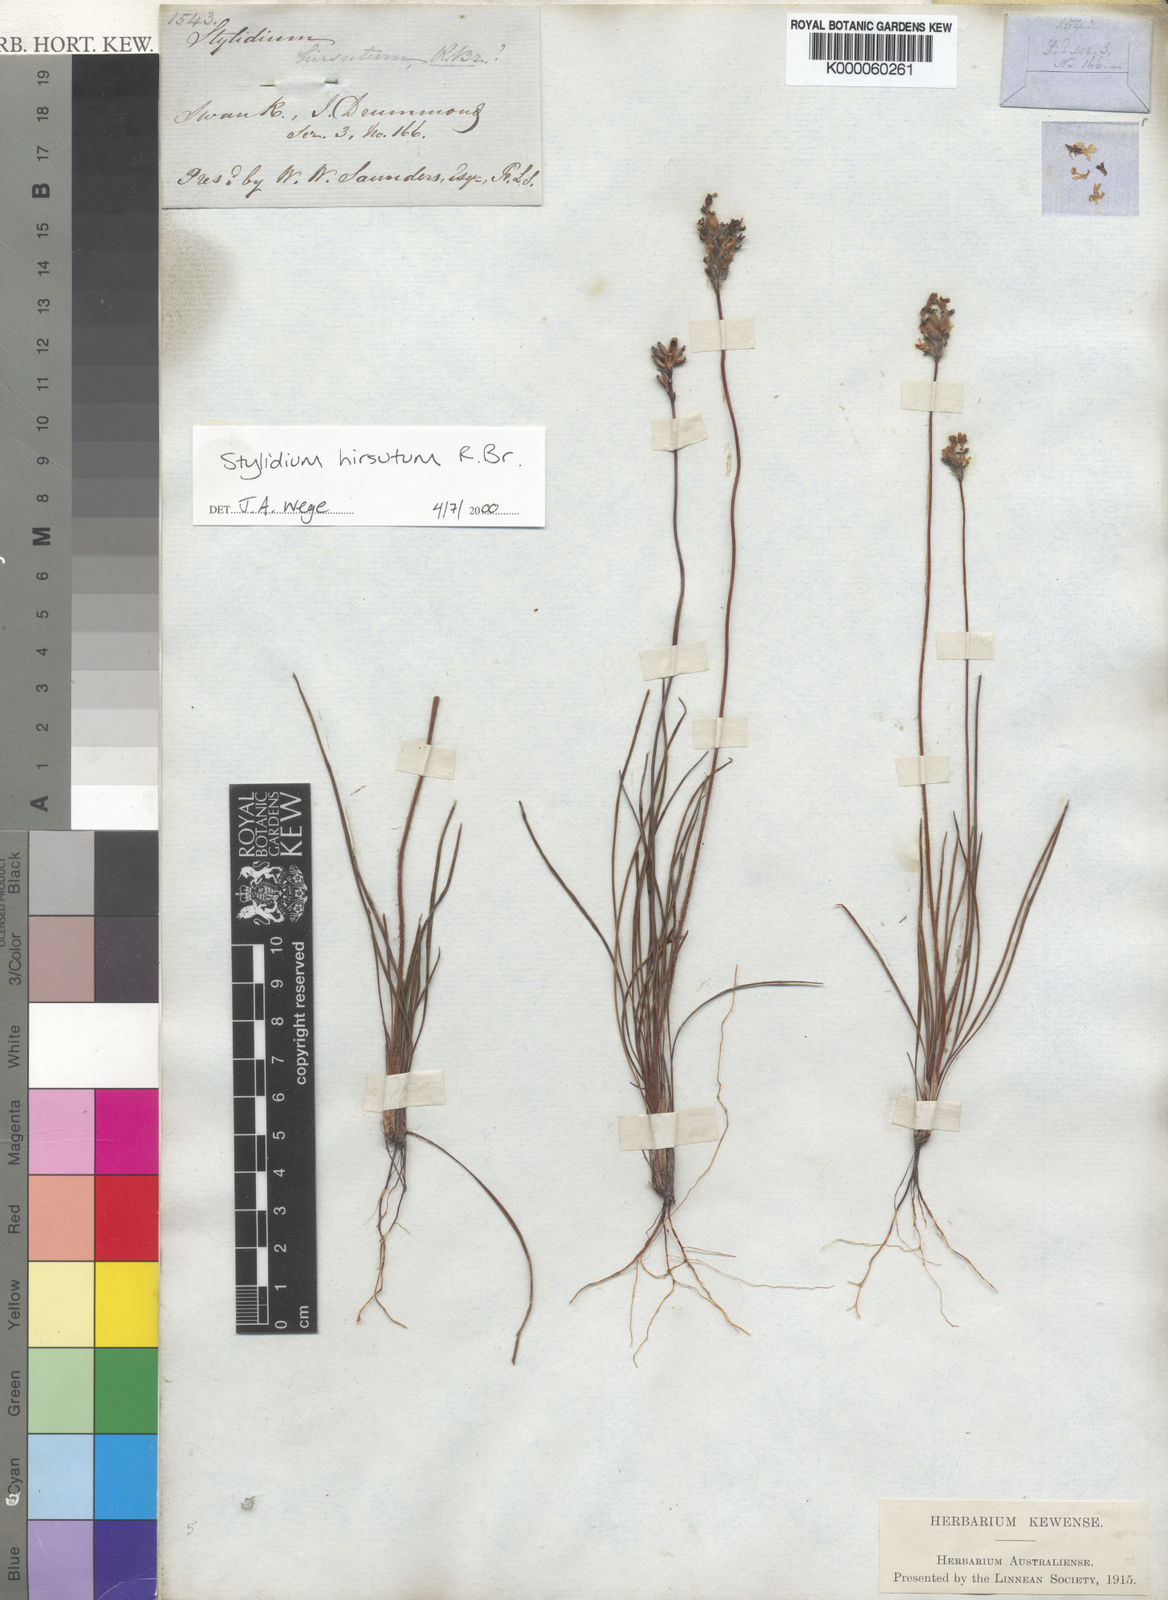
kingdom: Plantae
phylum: Tracheophyta
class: Magnoliopsida
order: Asterales
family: Stylidiaceae
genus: Stylidium
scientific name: Stylidium hirsutum
